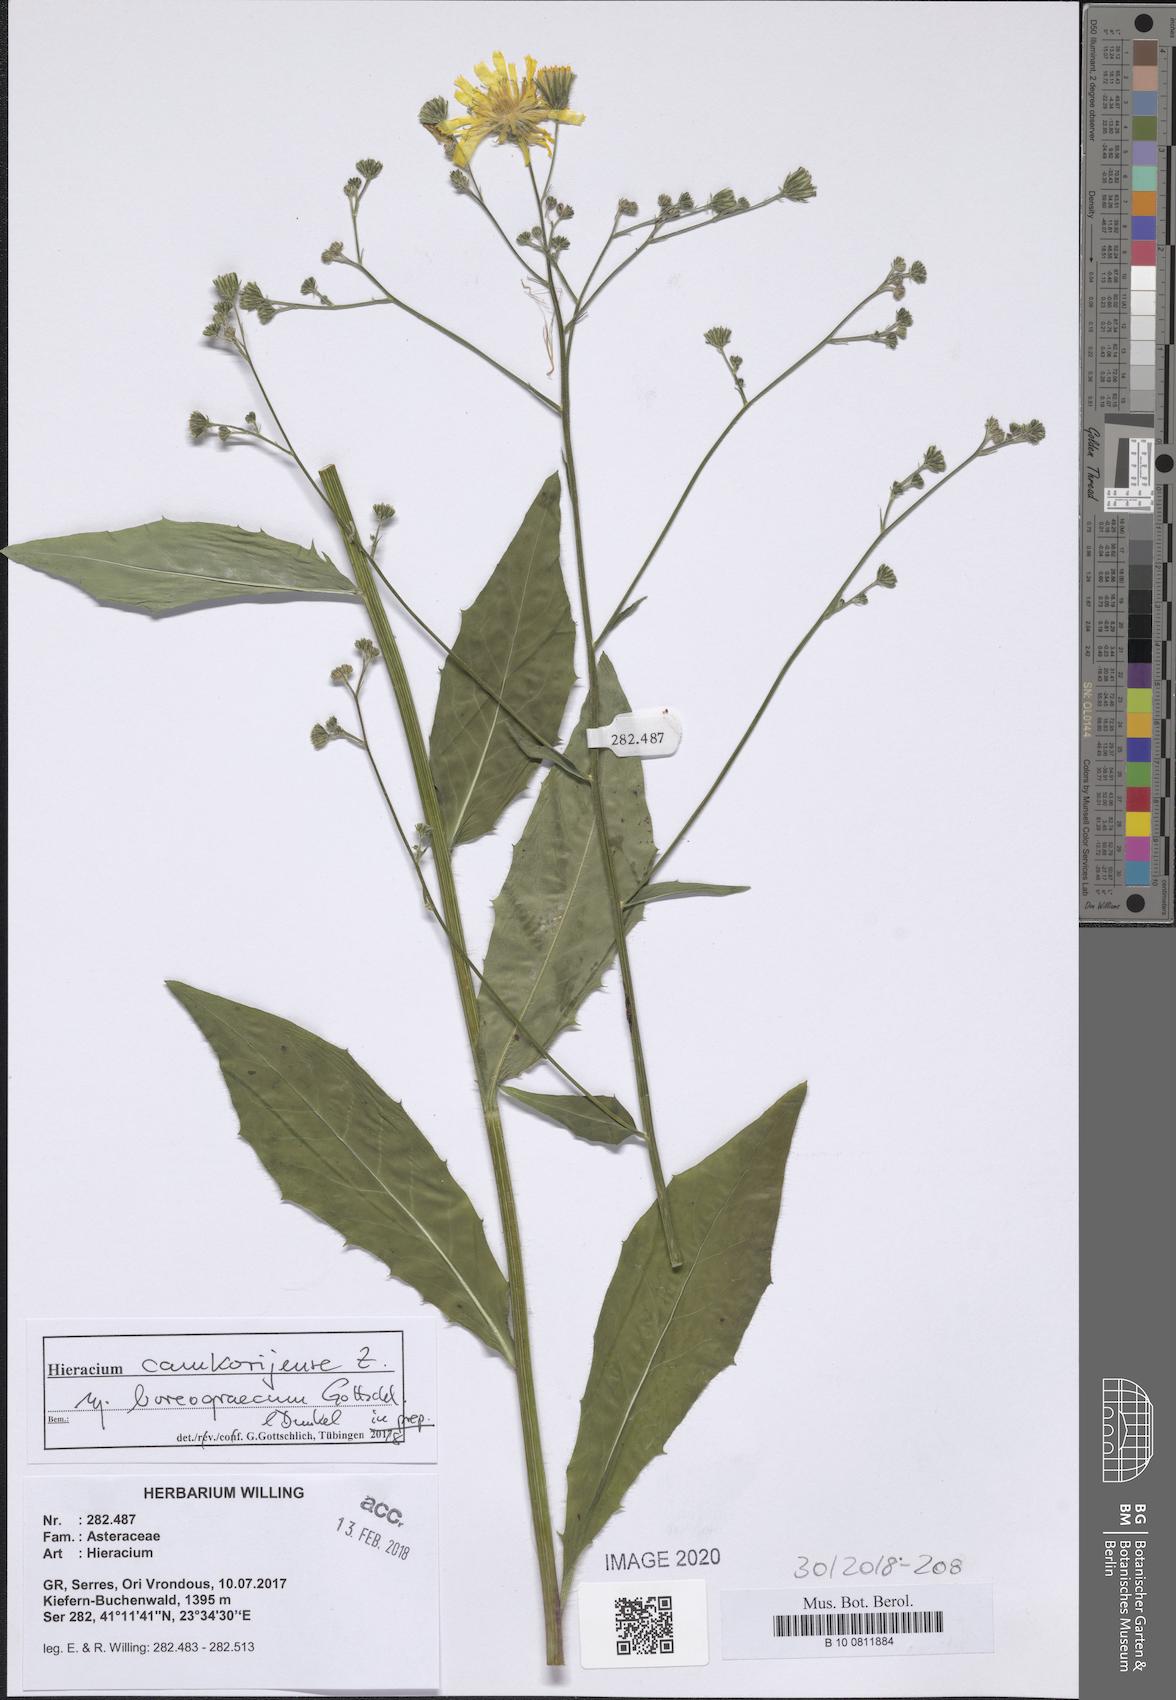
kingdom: Plantae
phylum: Tracheophyta
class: Magnoliopsida
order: Asterales
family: Asteraceae
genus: Hieracium
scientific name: Hieracium camkorijense
